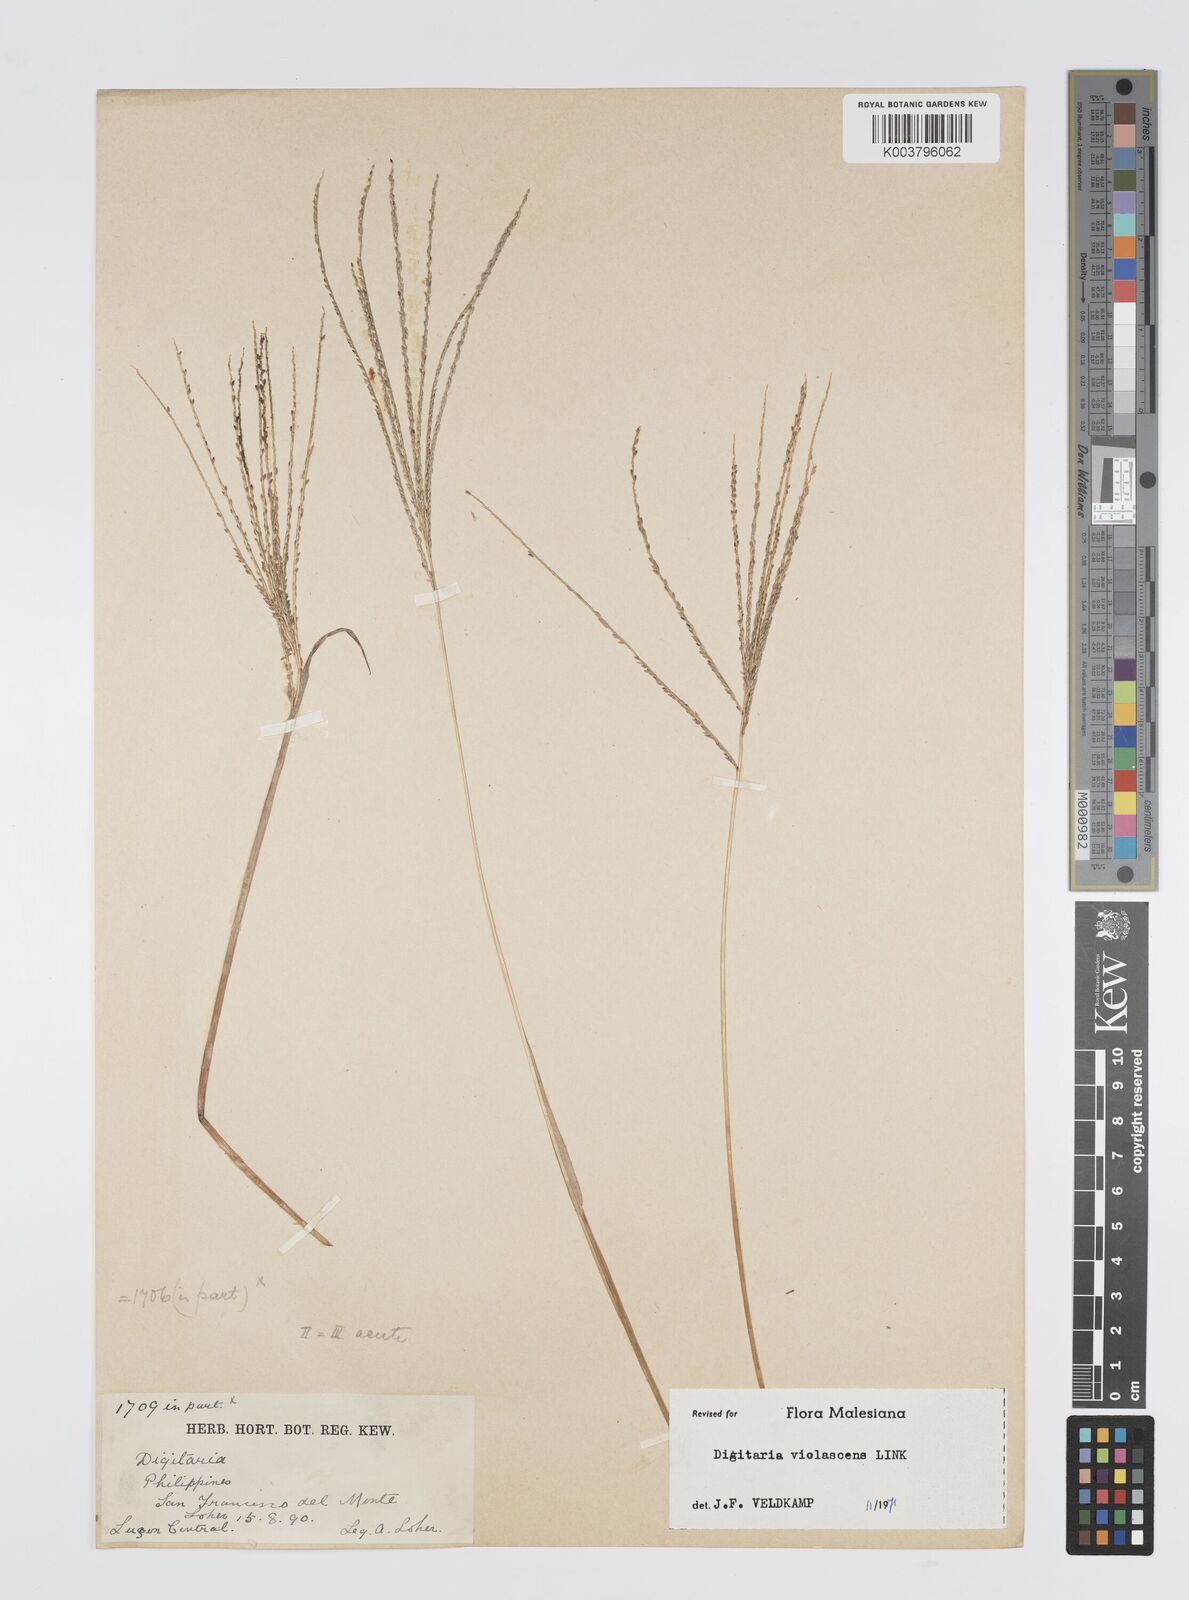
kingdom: Plantae
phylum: Tracheophyta
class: Liliopsida
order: Poales
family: Poaceae
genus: Digitaria
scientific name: Digitaria violascens
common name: Violet crabgrass
